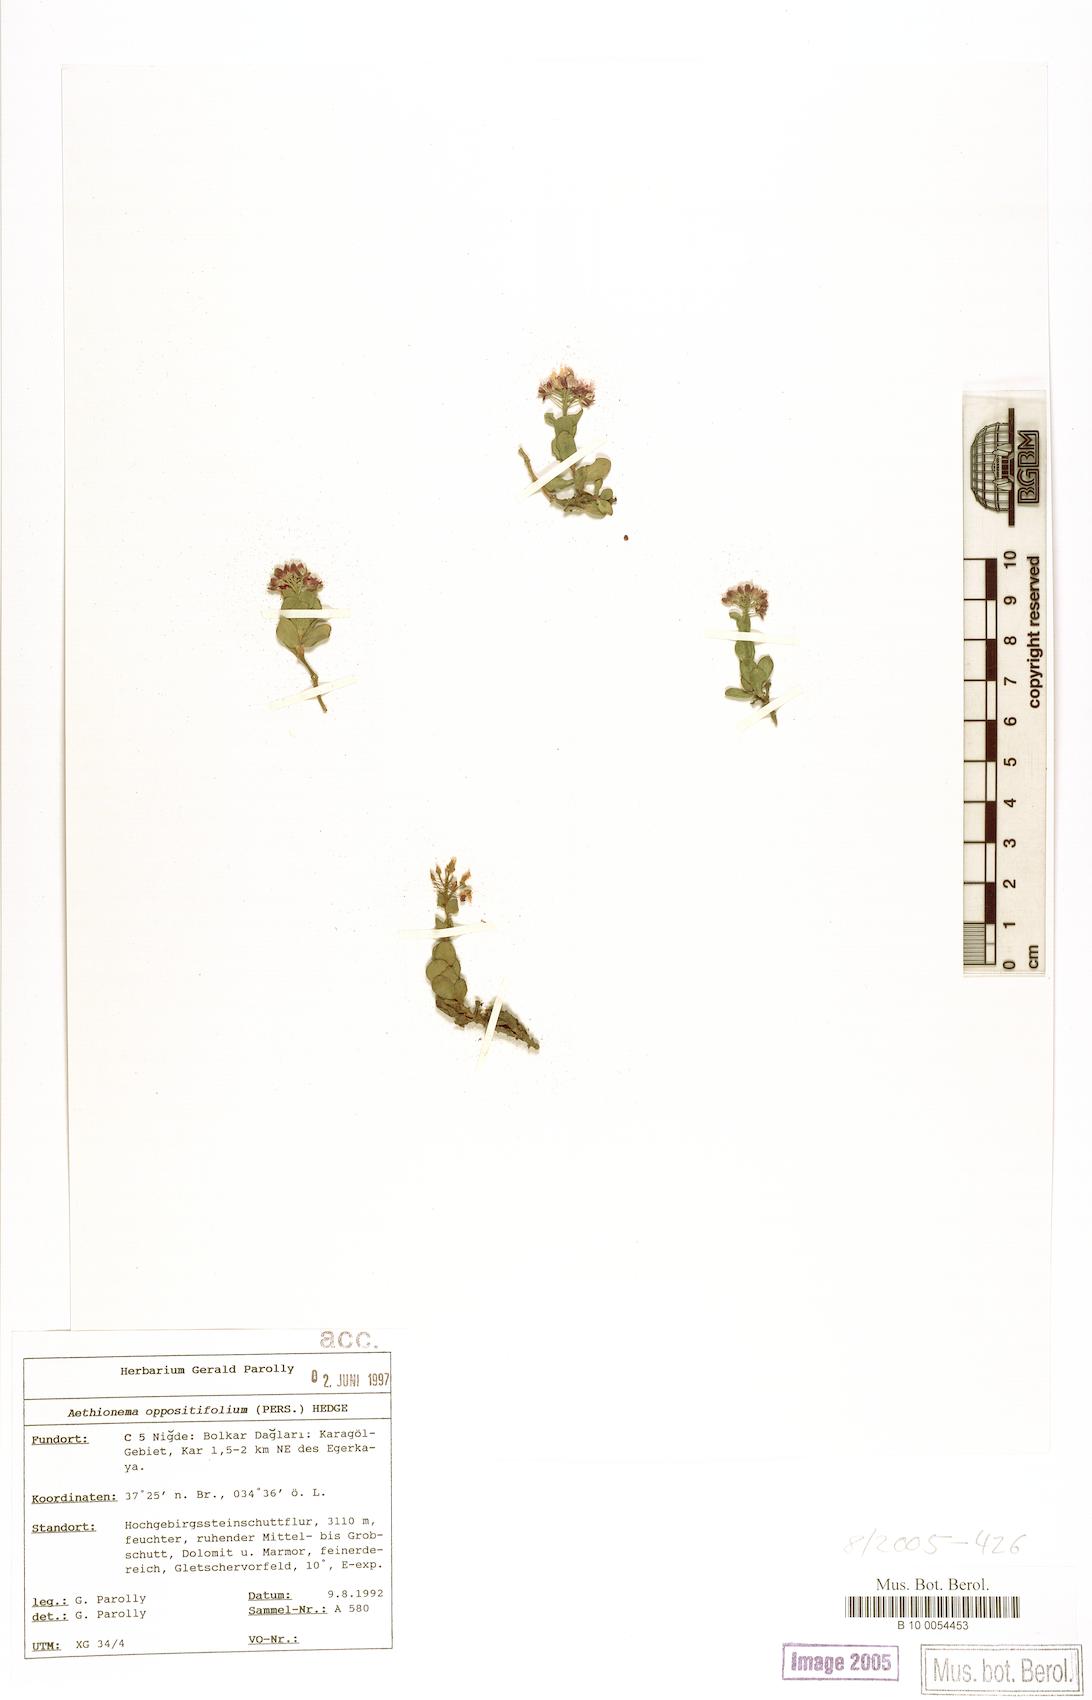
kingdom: Plantae
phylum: Tracheophyta
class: Magnoliopsida
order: Brassicales
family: Brassicaceae
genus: Noccaea
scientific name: Noccaea oppositifolia
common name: Twin-leaf stone-cress
